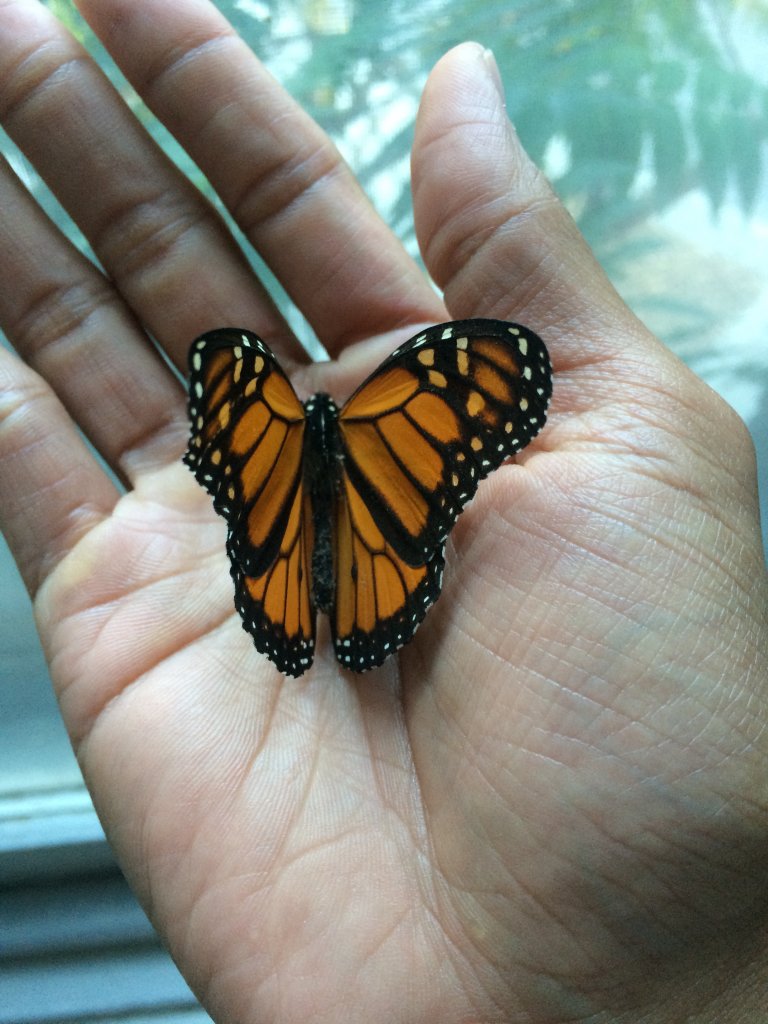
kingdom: Animalia
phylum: Arthropoda
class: Insecta
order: Lepidoptera
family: Nymphalidae
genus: Danaus
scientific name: Danaus plexippus
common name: Monarch
